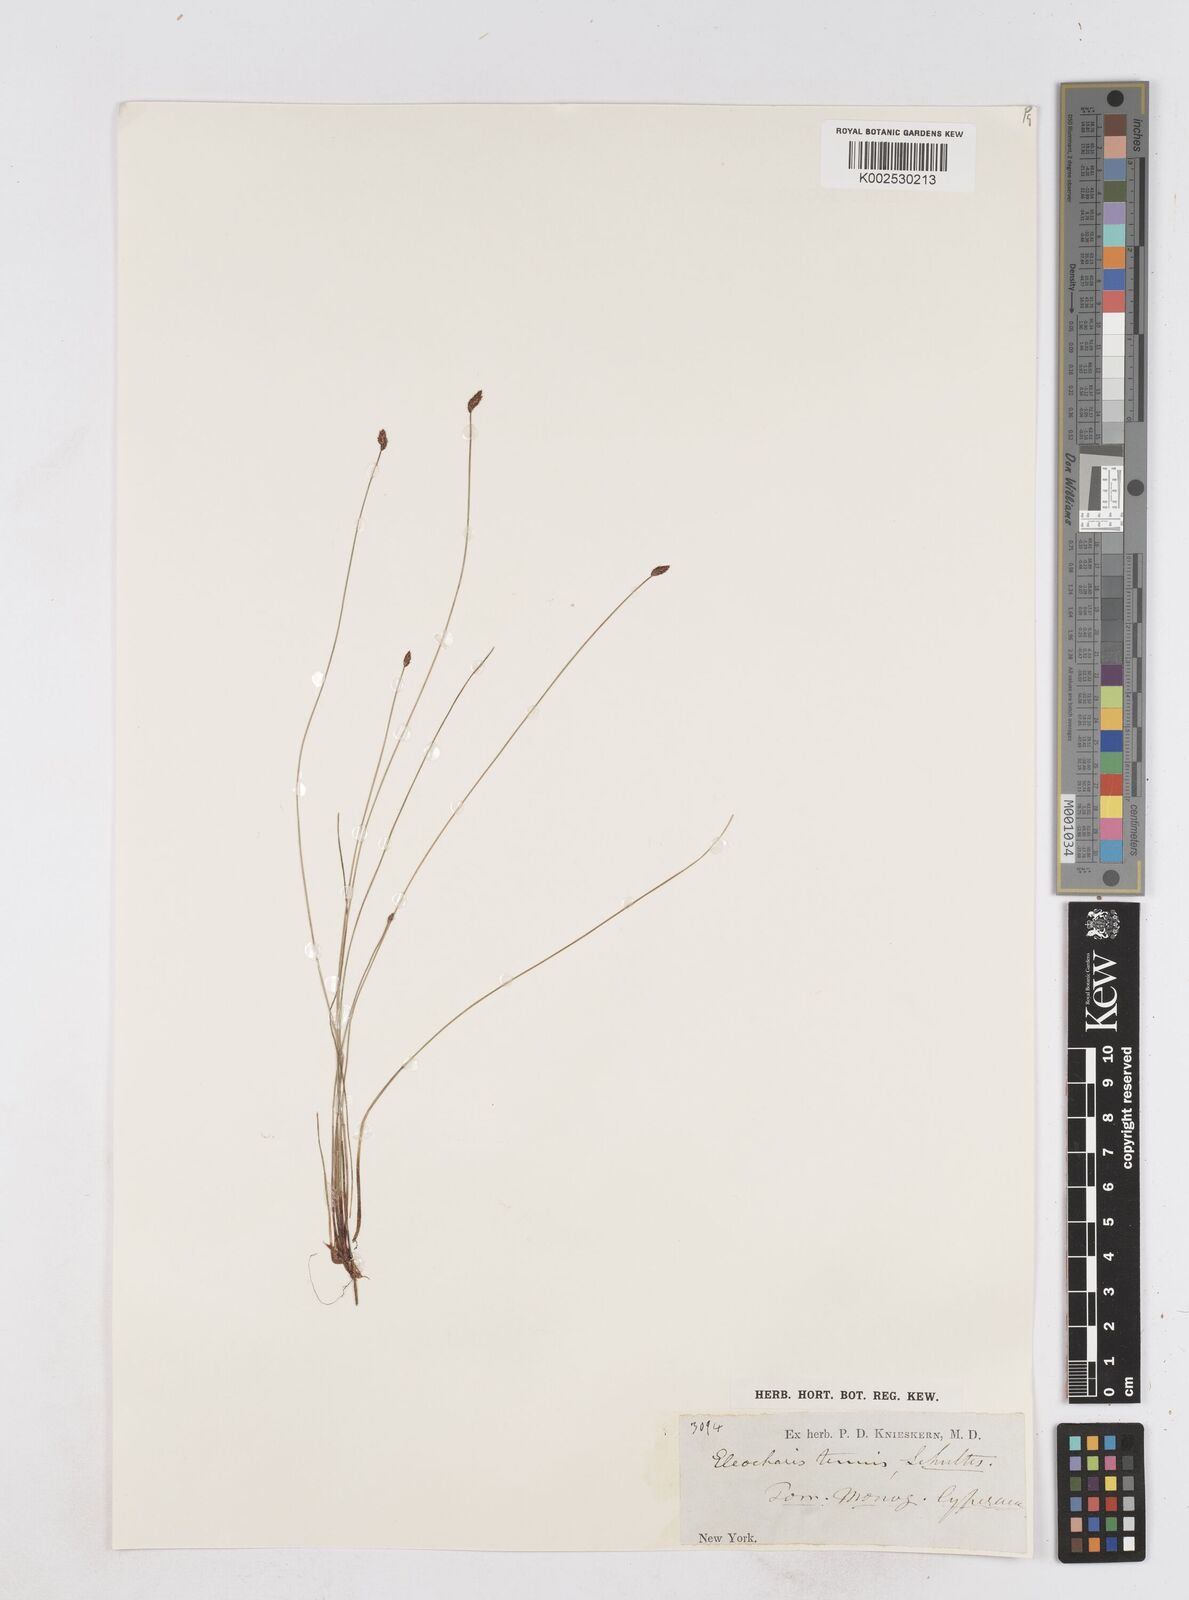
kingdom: Plantae
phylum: Tracheophyta
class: Liliopsida
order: Poales
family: Cyperaceae
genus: Eleocharis
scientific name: Eleocharis tenuis
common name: Dog's hair
